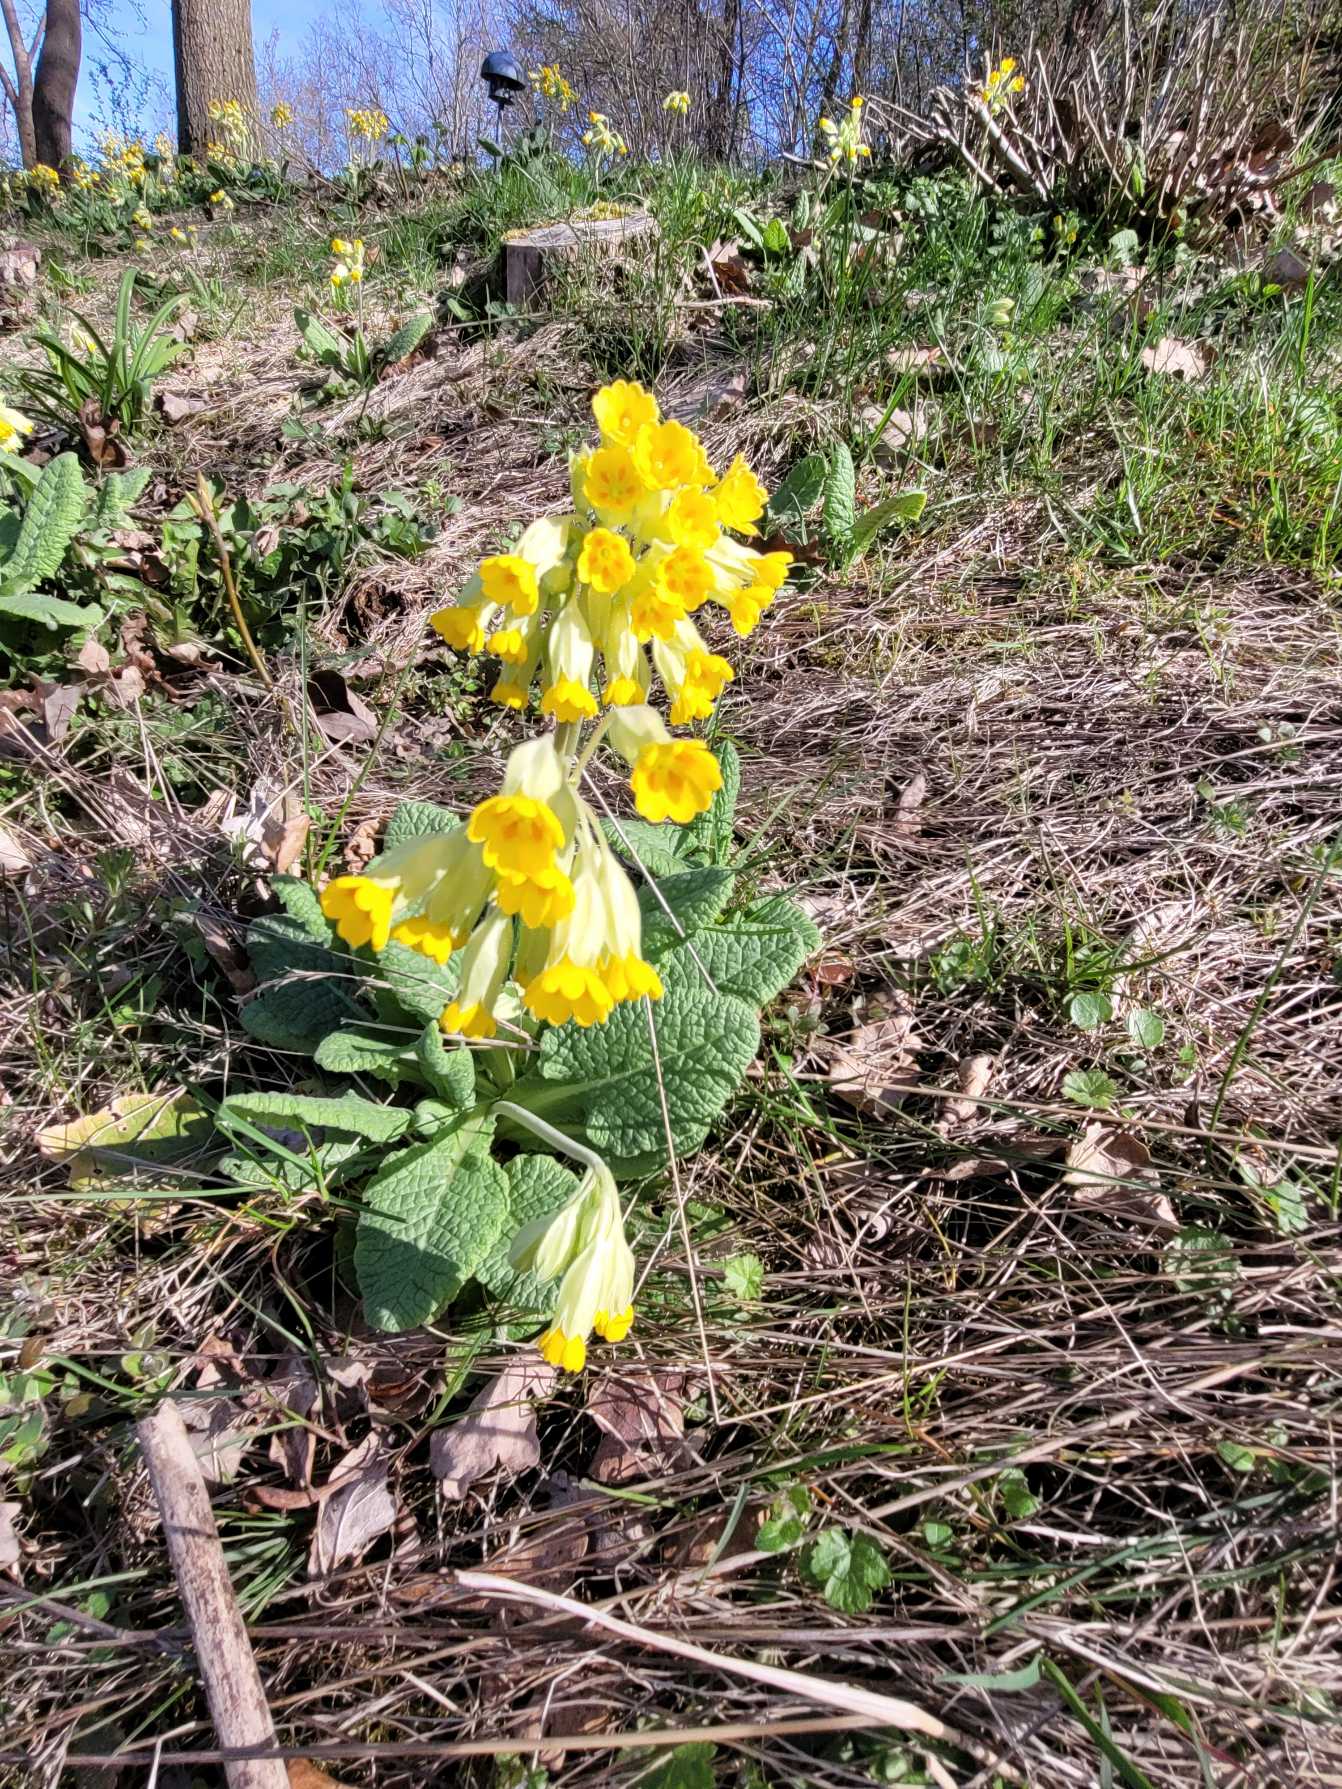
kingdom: Plantae
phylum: Tracheophyta
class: Magnoliopsida
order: Ericales
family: Primulaceae
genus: Primula
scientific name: Primula veris
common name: Hulkravet kodriver
